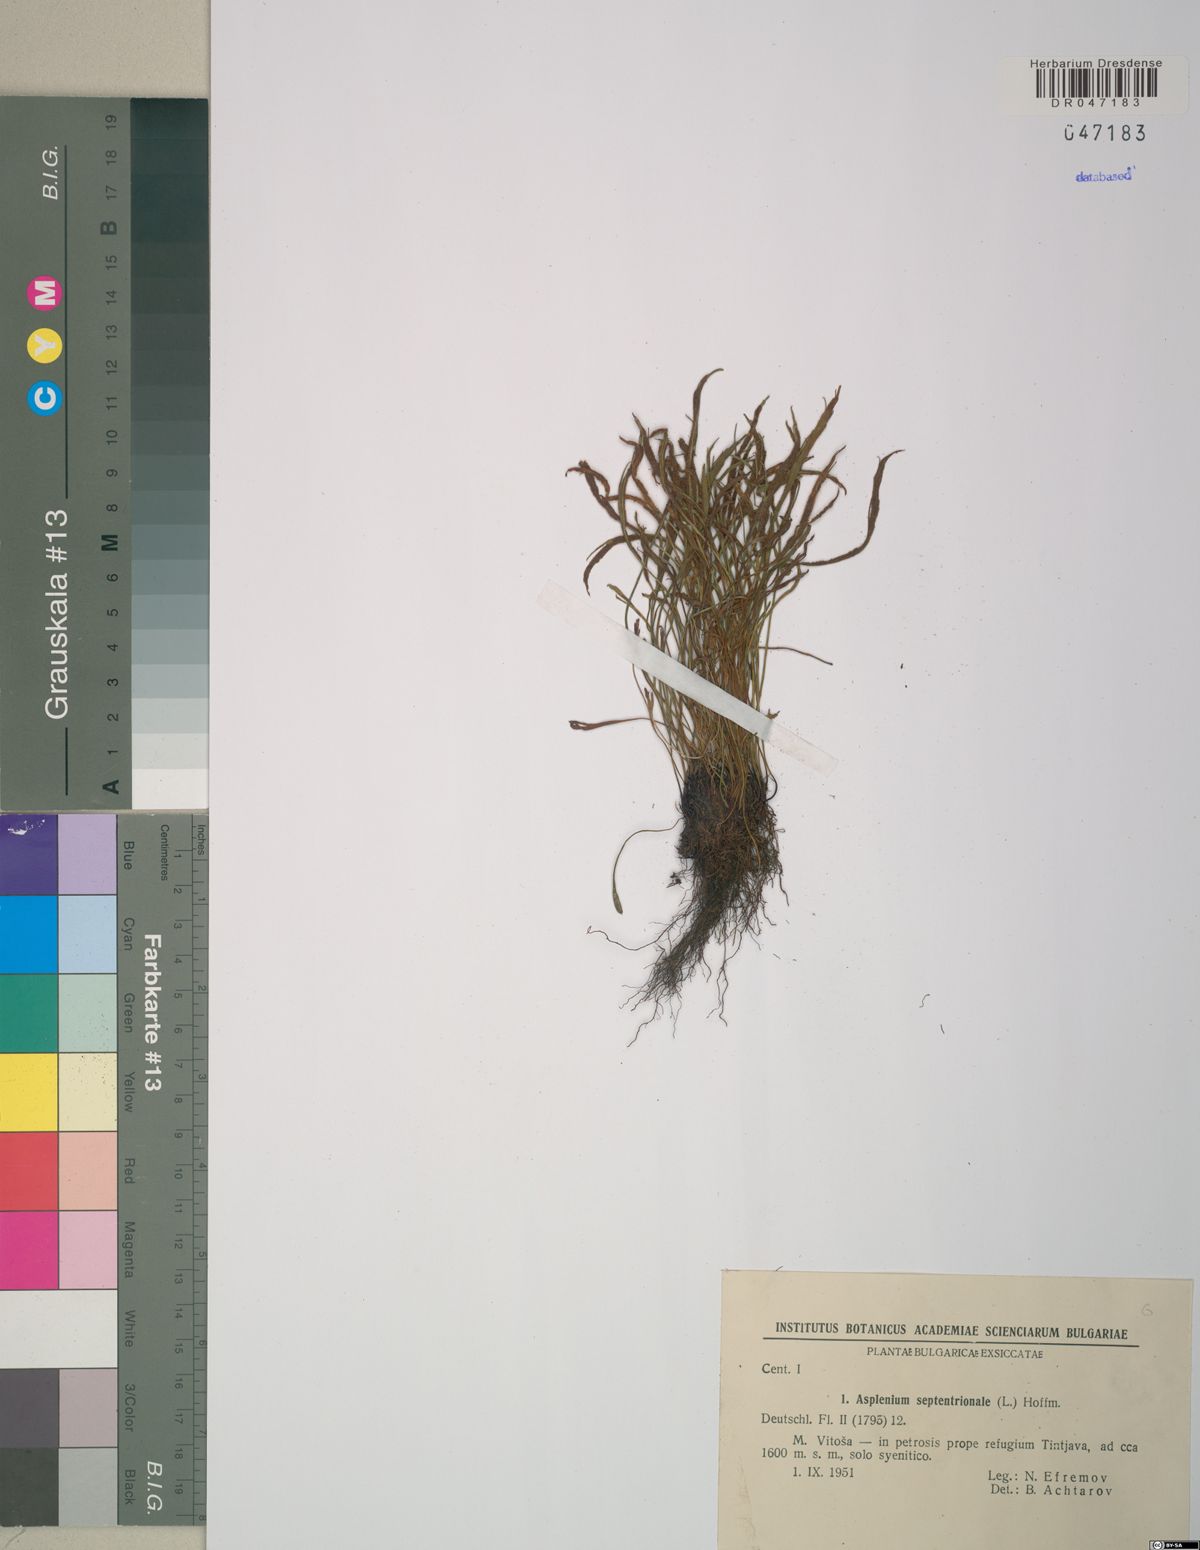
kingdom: Plantae
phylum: Tracheophyta
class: Polypodiopsida
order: Polypodiales
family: Aspleniaceae
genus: Asplenium
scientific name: Asplenium septentrionale
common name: Forked spleenwort
